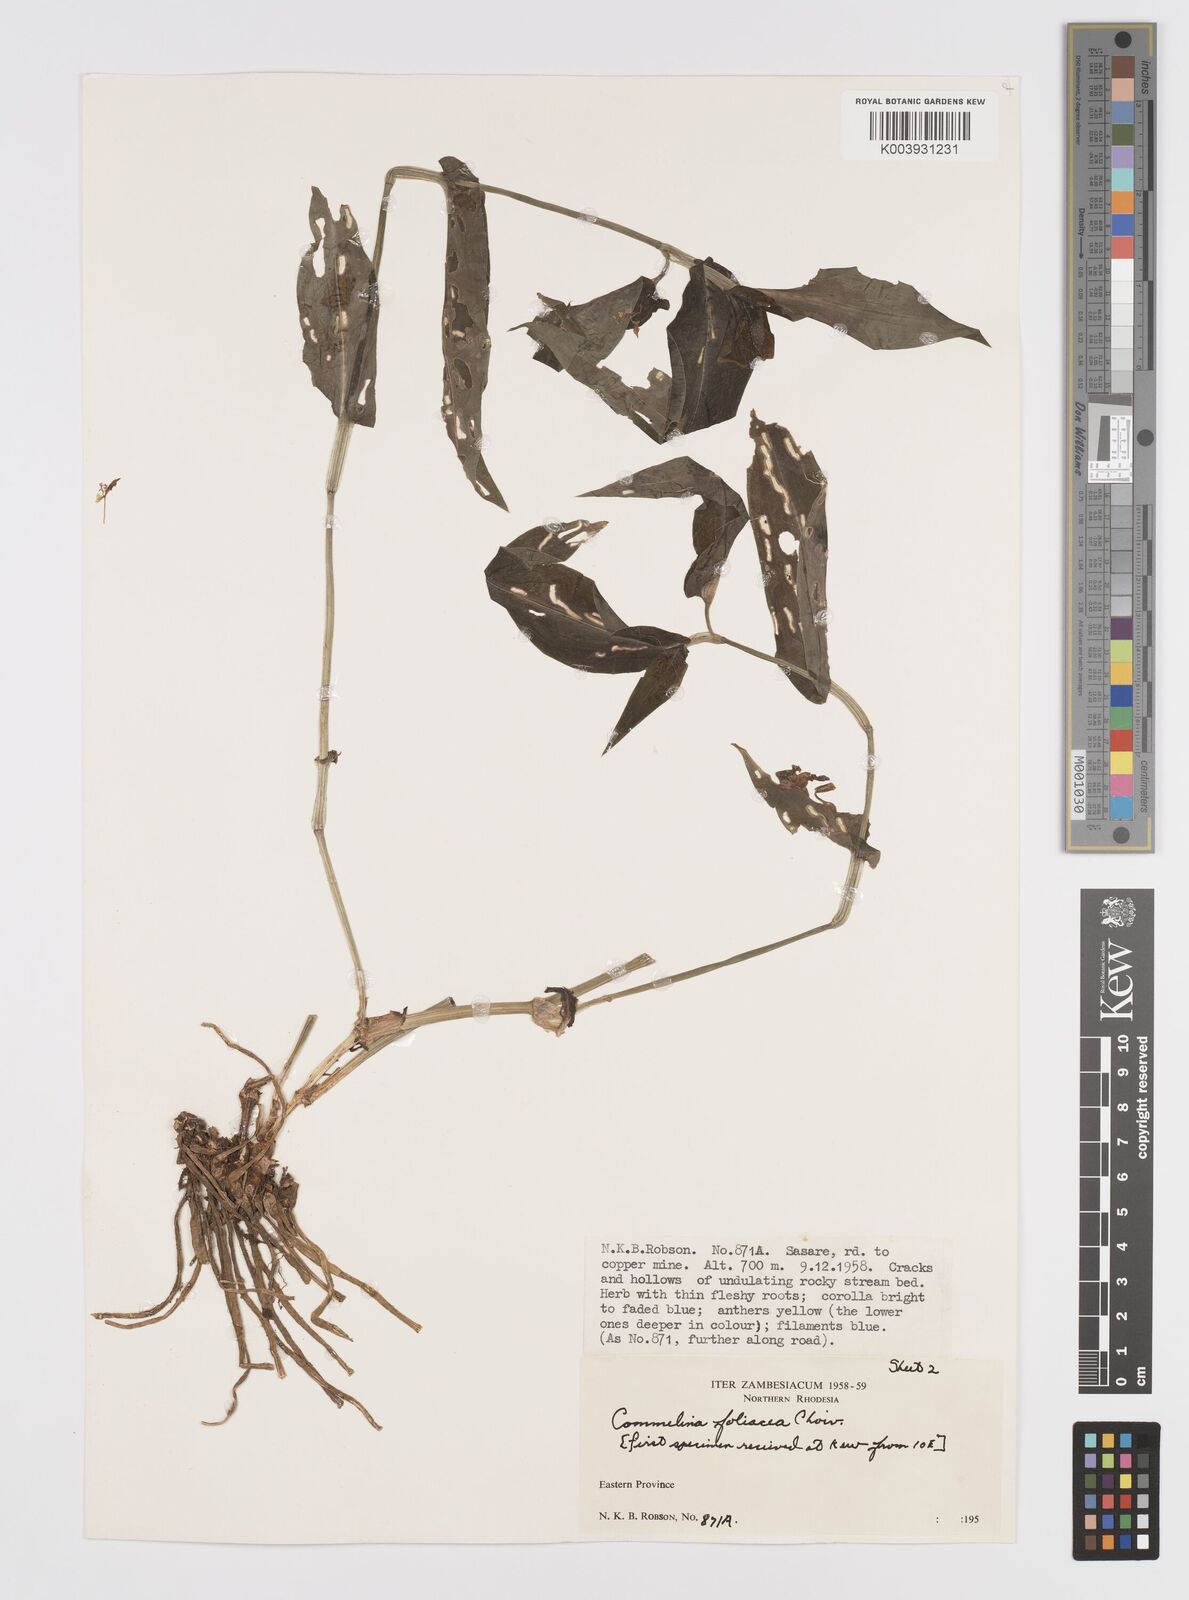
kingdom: Plantae
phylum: Tracheophyta
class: Liliopsida
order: Commelinales
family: Commelinaceae
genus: Commelina
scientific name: Commelina foliacea
